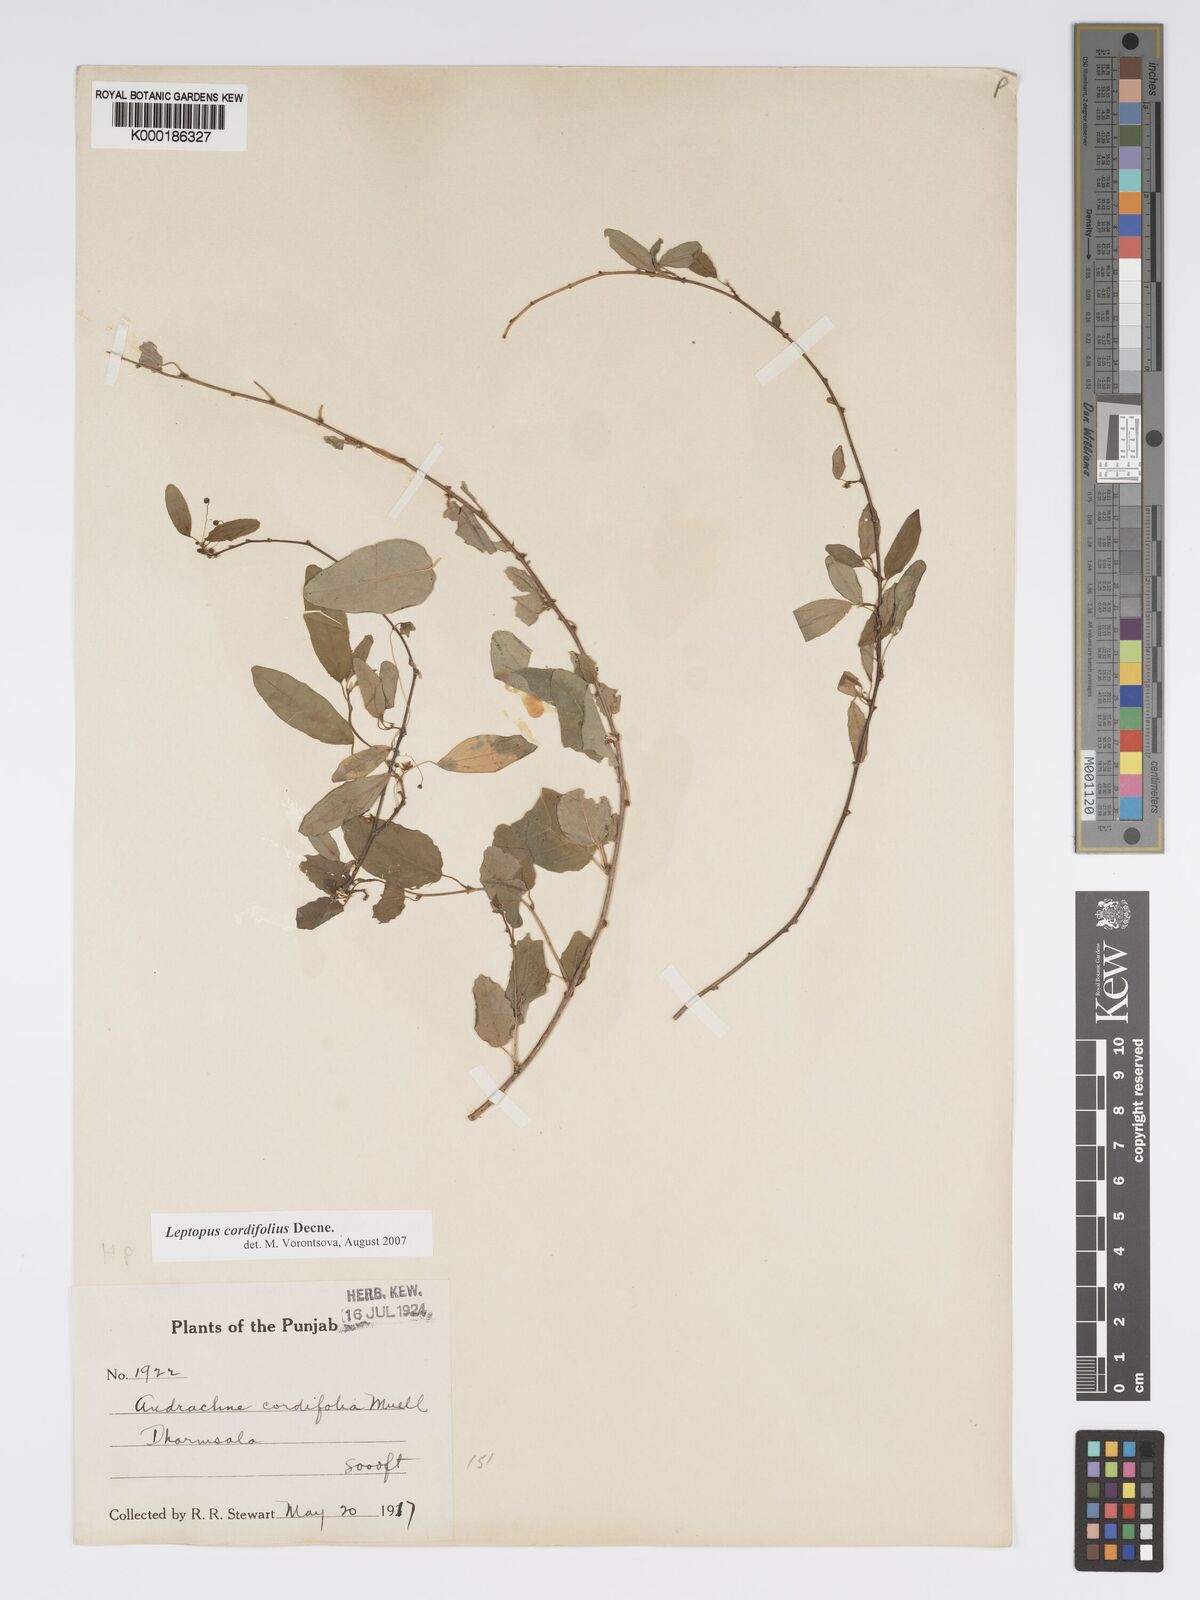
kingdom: Plantae
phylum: Tracheophyta
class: Magnoliopsida
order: Malpighiales
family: Phyllanthaceae
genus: Leptopus
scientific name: Leptopus cordifolius
